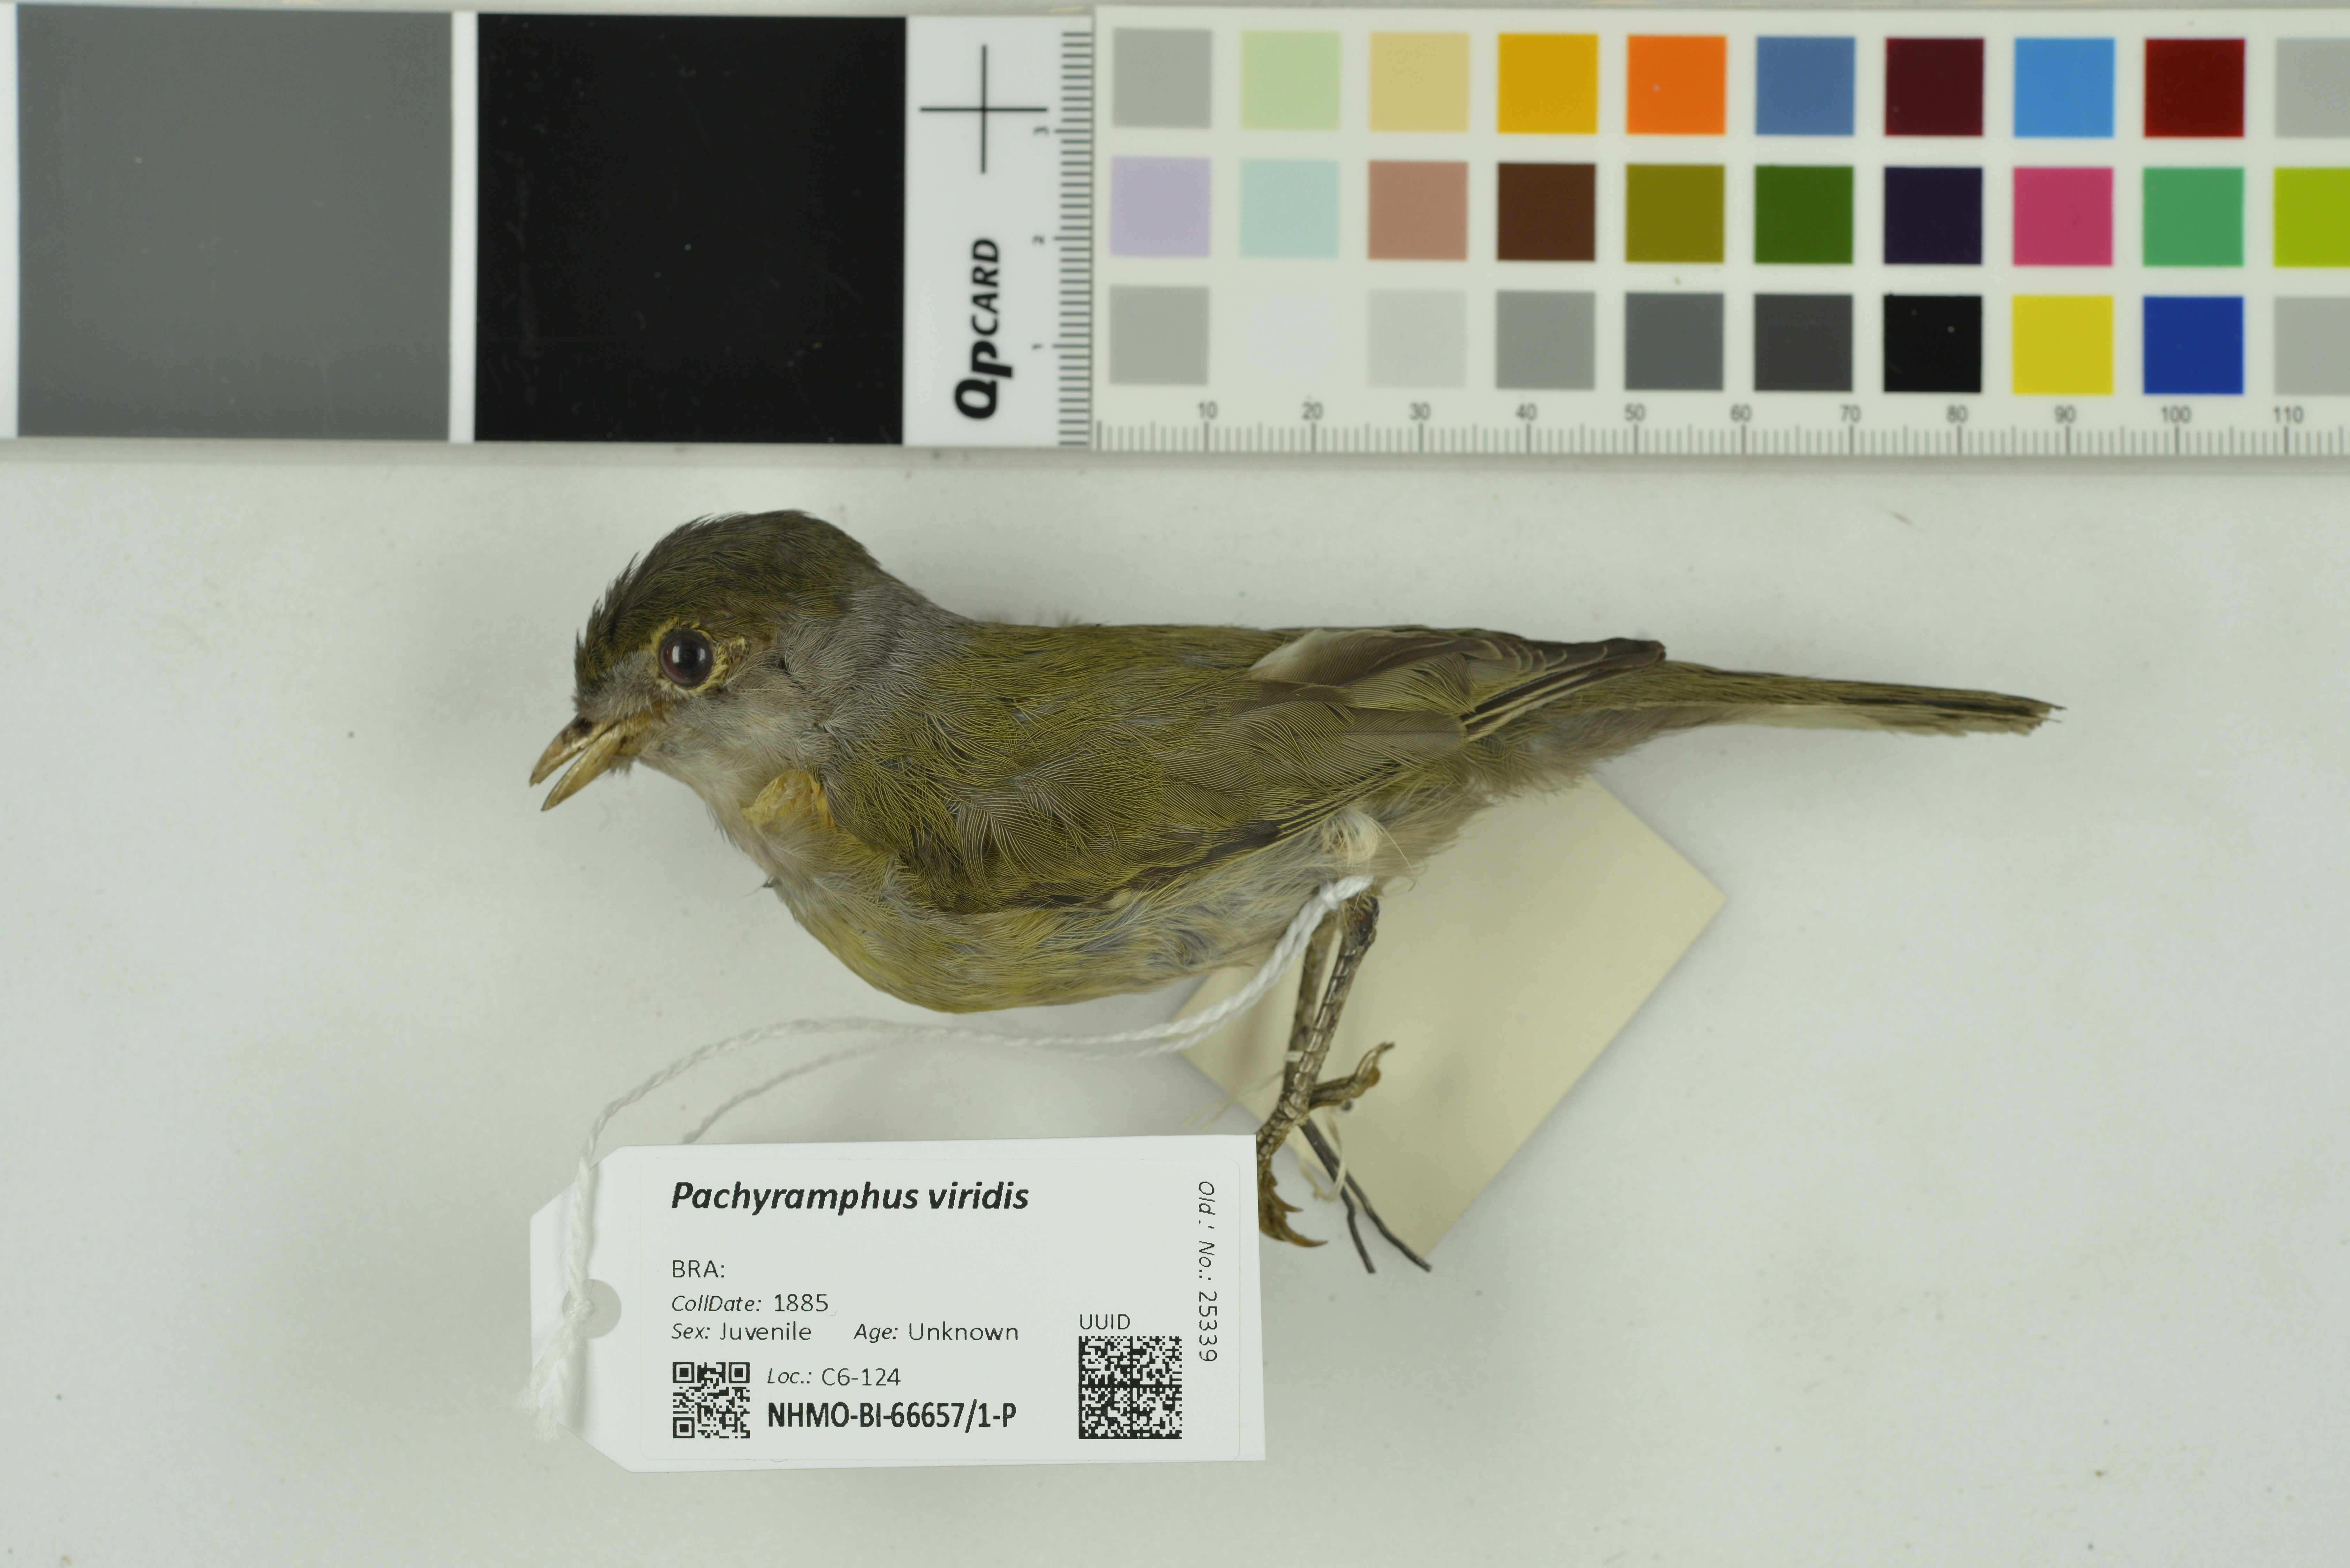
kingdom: Animalia
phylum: Chordata
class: Aves
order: Passeriformes
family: Cotingidae
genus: Pachyramphus
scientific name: Pachyramphus viridis
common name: Green-backed becard
